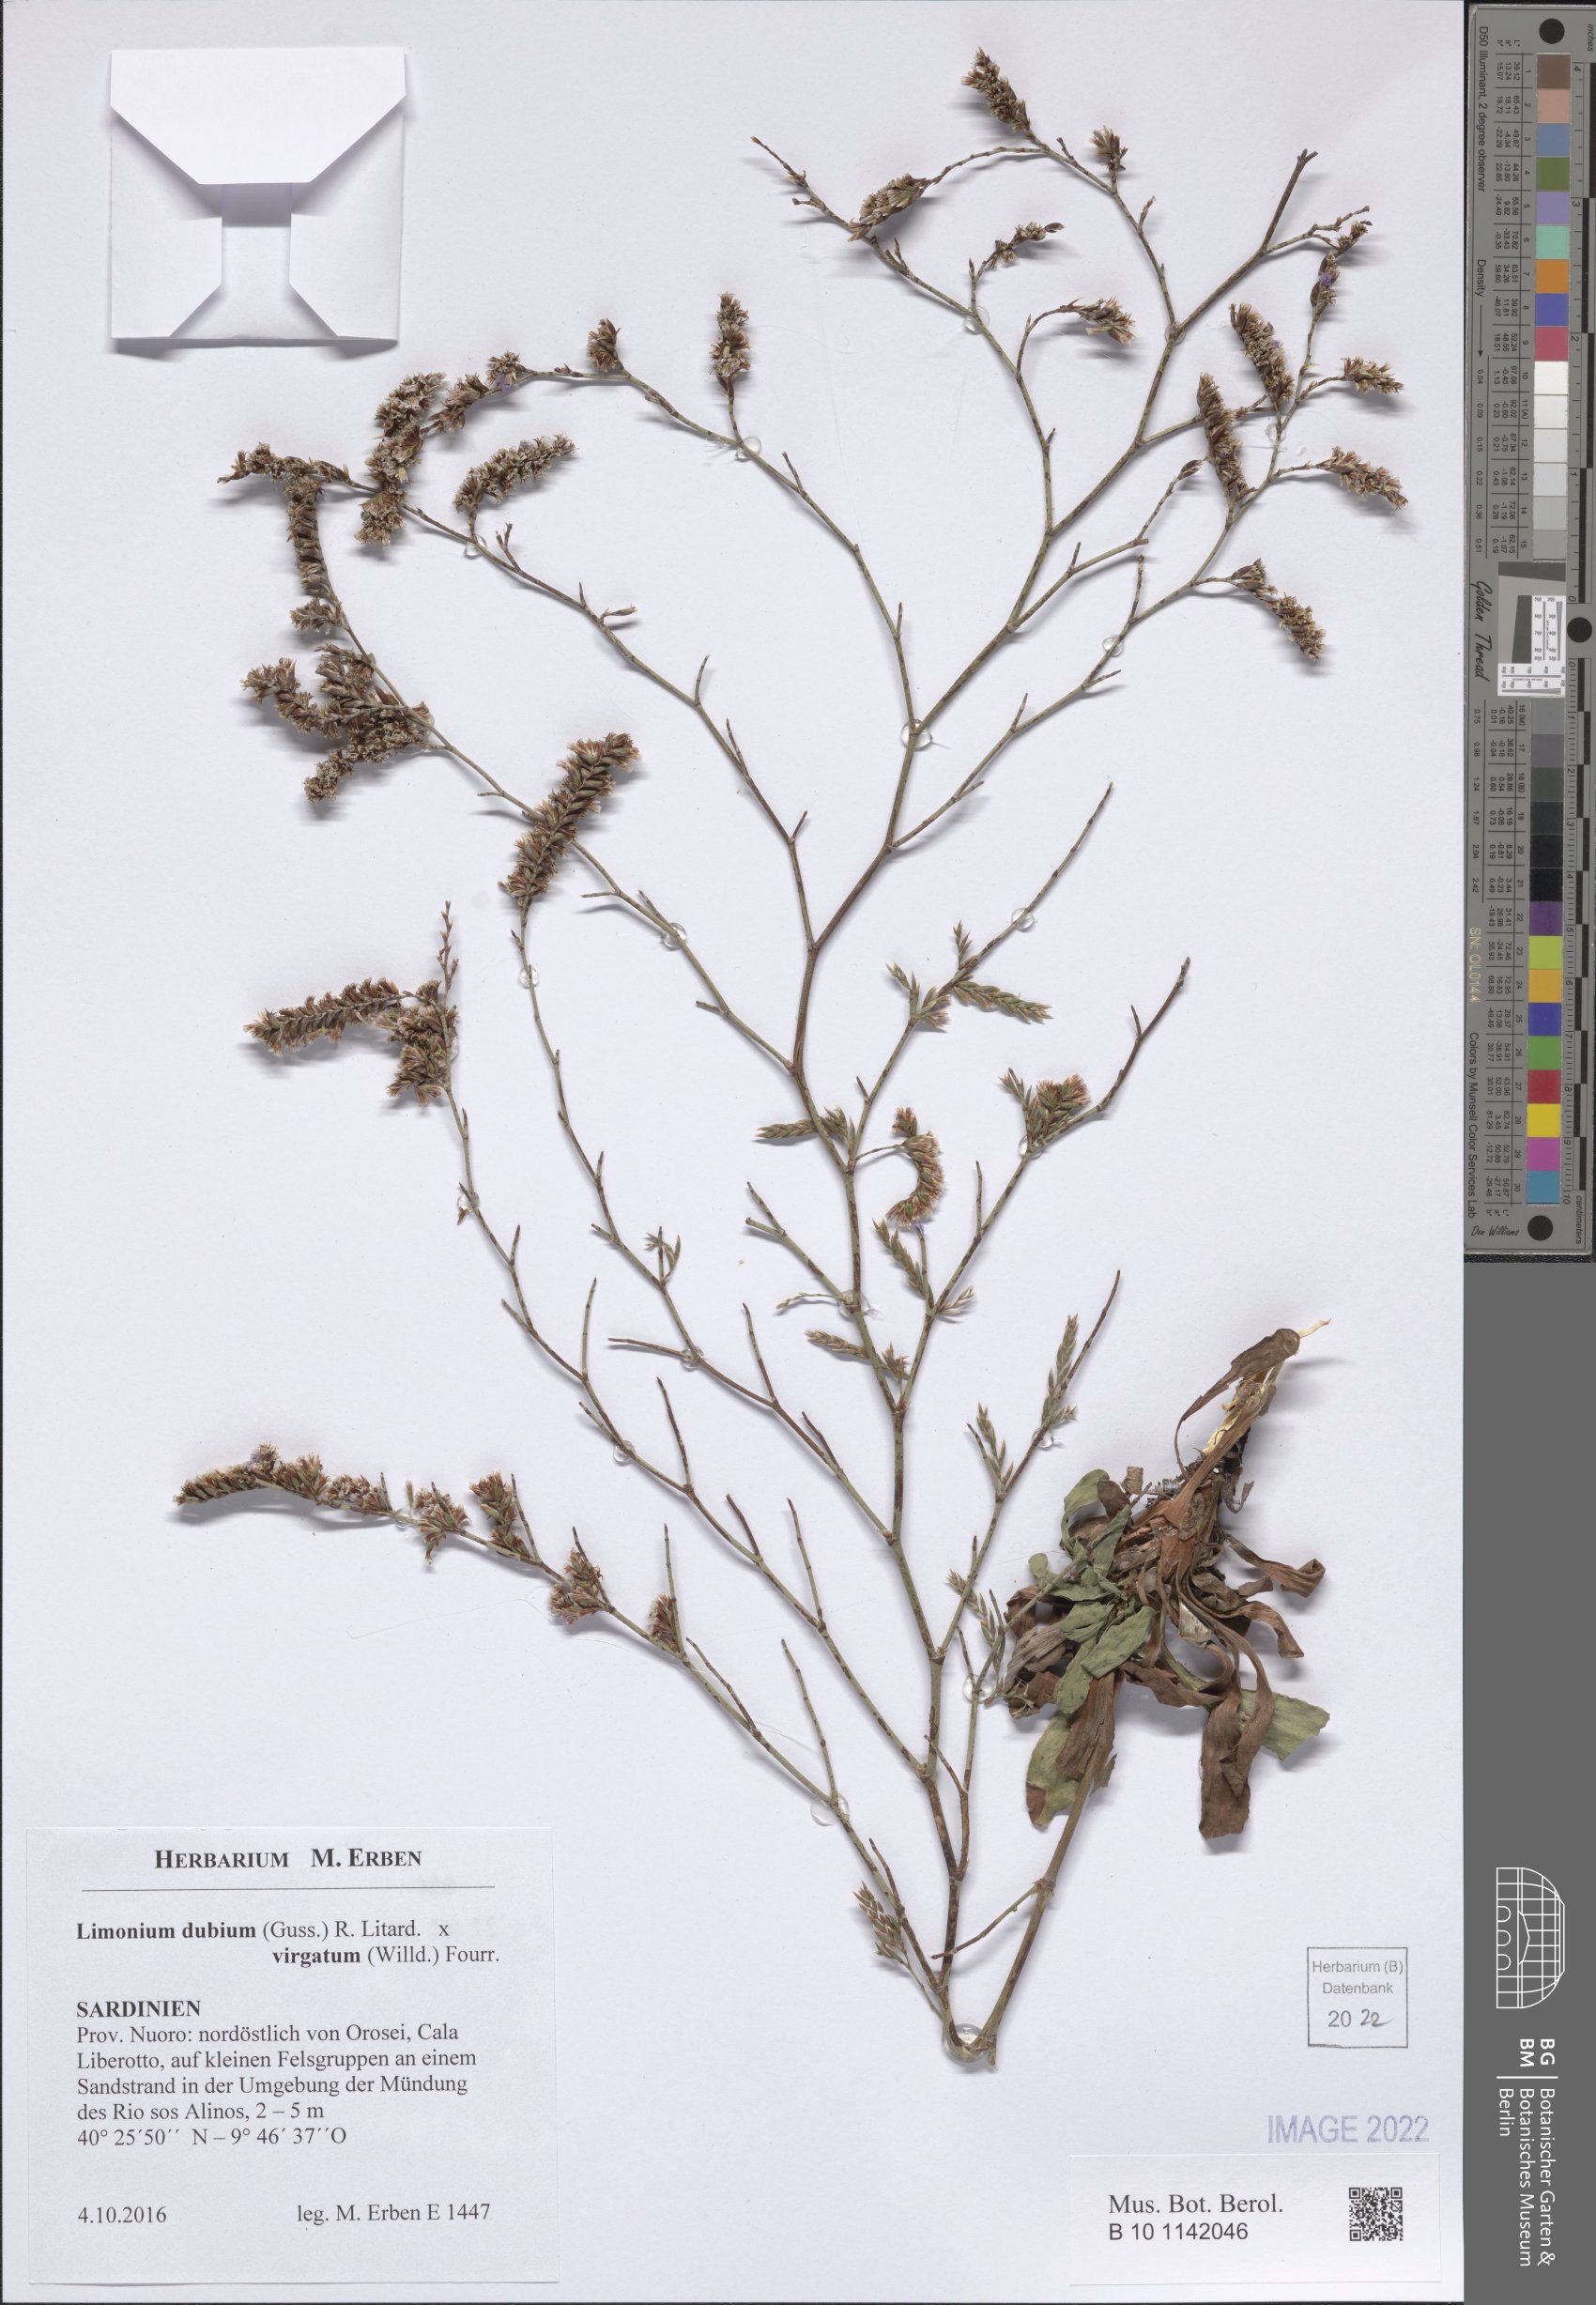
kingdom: Plantae
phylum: Tracheophyta
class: Magnoliopsida
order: Caryophyllales
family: Plumbaginaceae
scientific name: Plumbaginaceae
